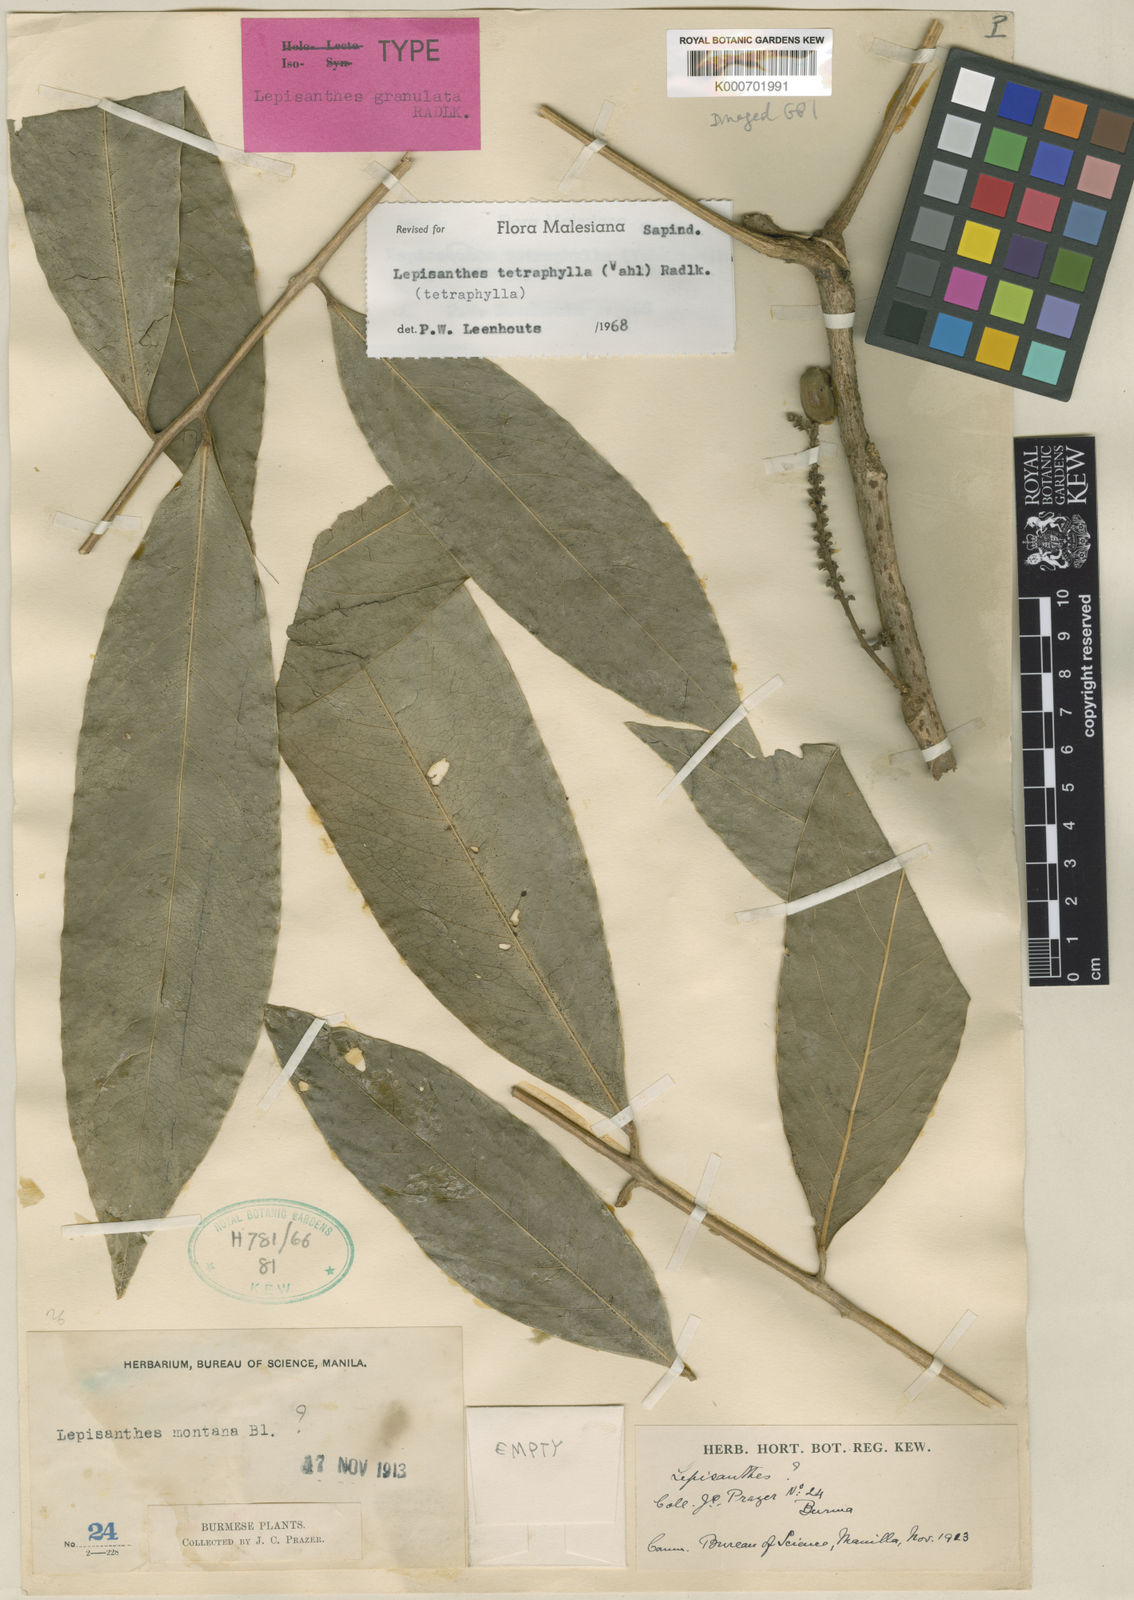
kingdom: Plantae
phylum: Tracheophyta
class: Magnoliopsida
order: Sapindales
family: Sapindaceae
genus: Lepisanthes
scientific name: Lepisanthes tetraphylla
